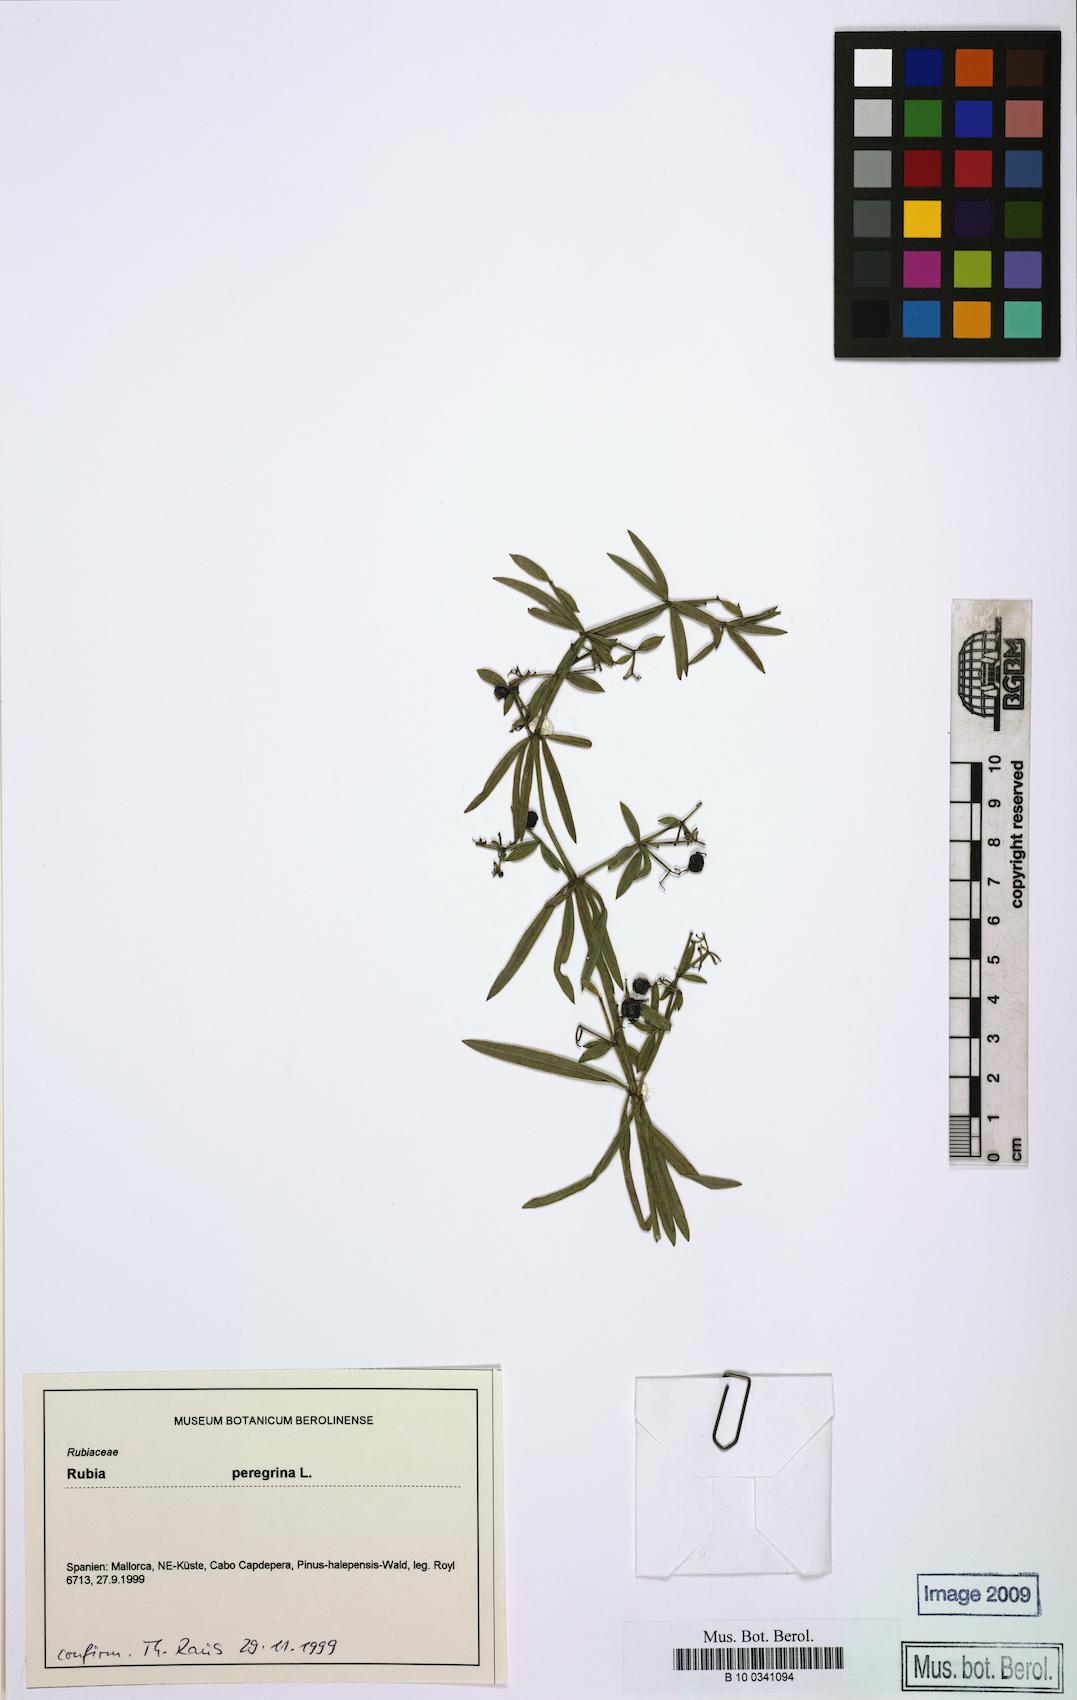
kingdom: Plantae
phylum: Tracheophyta
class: Magnoliopsida
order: Gentianales
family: Rubiaceae
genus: Rubia
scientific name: Rubia peregrina
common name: Wild madder
